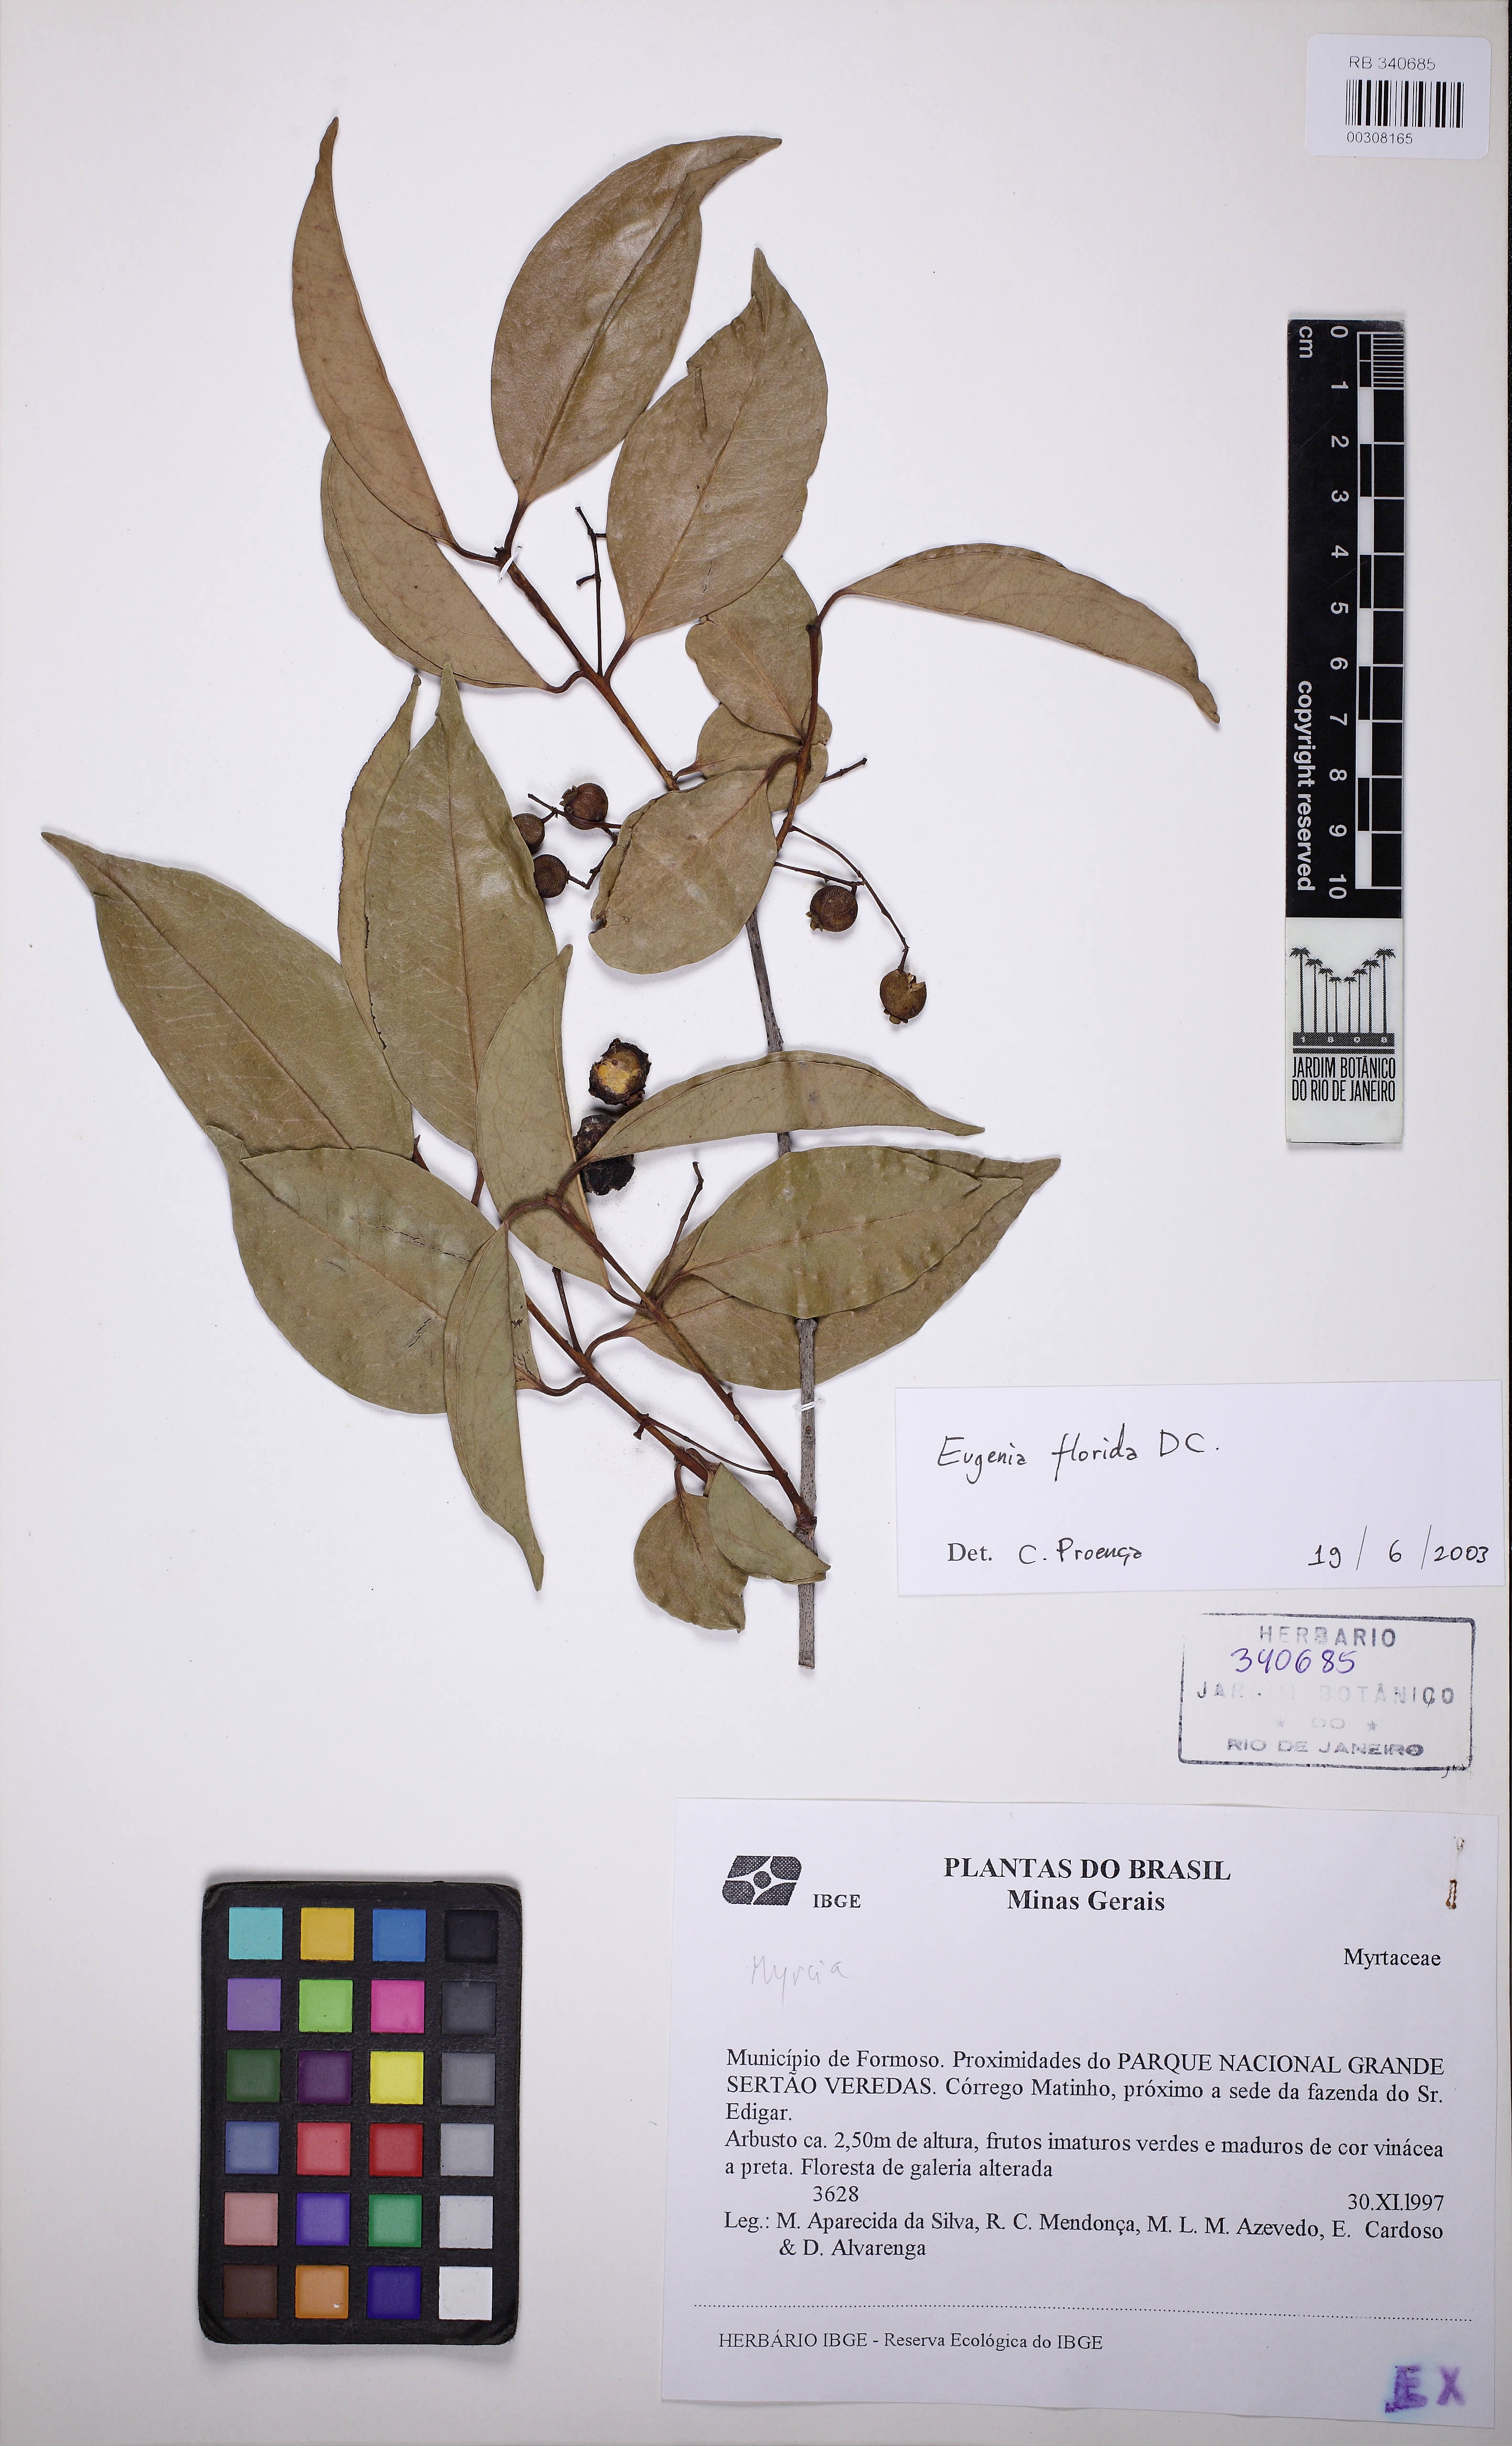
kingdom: Plantae
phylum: Tracheophyta
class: Magnoliopsida
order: Myrtales
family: Myrtaceae
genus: Eugenia
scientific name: Eugenia florida
